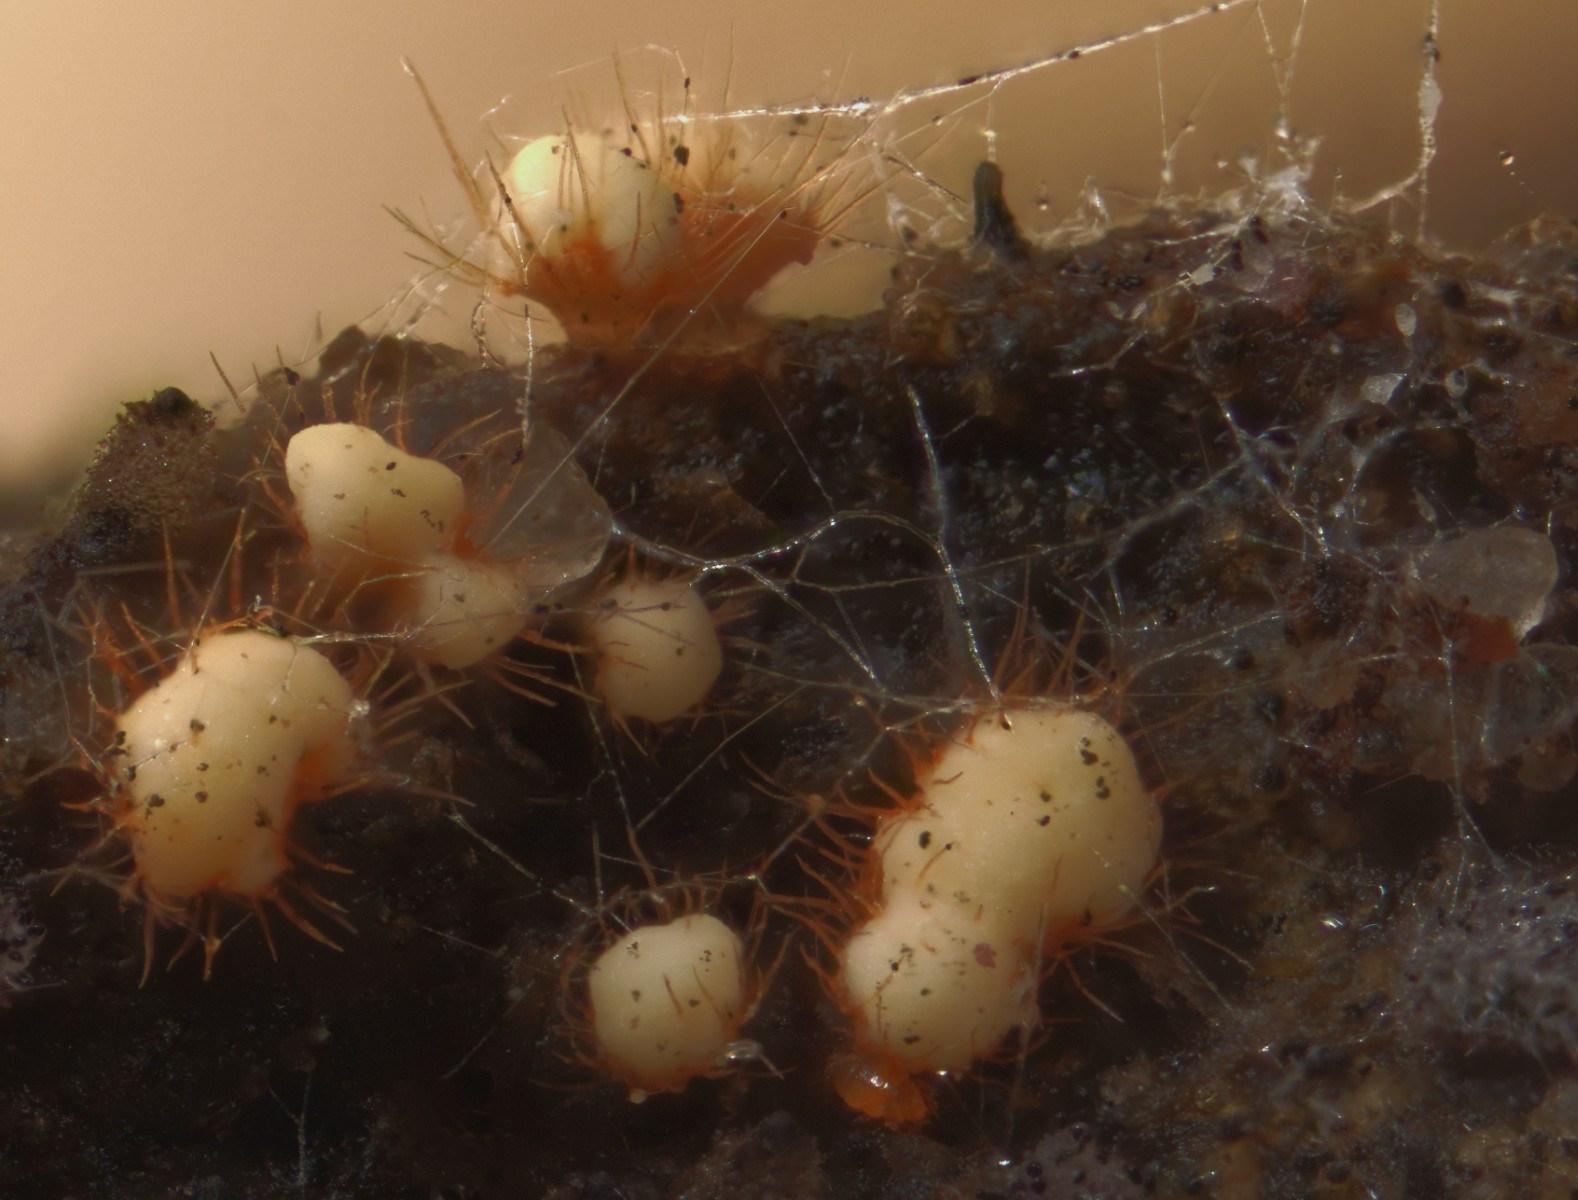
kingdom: Fungi
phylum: Ascomycota
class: Pezizomycetes
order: Pezizales
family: Ascodesmidaceae
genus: Trichobolus
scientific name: Trichobolus zukalii
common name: ægsporet småbæger
